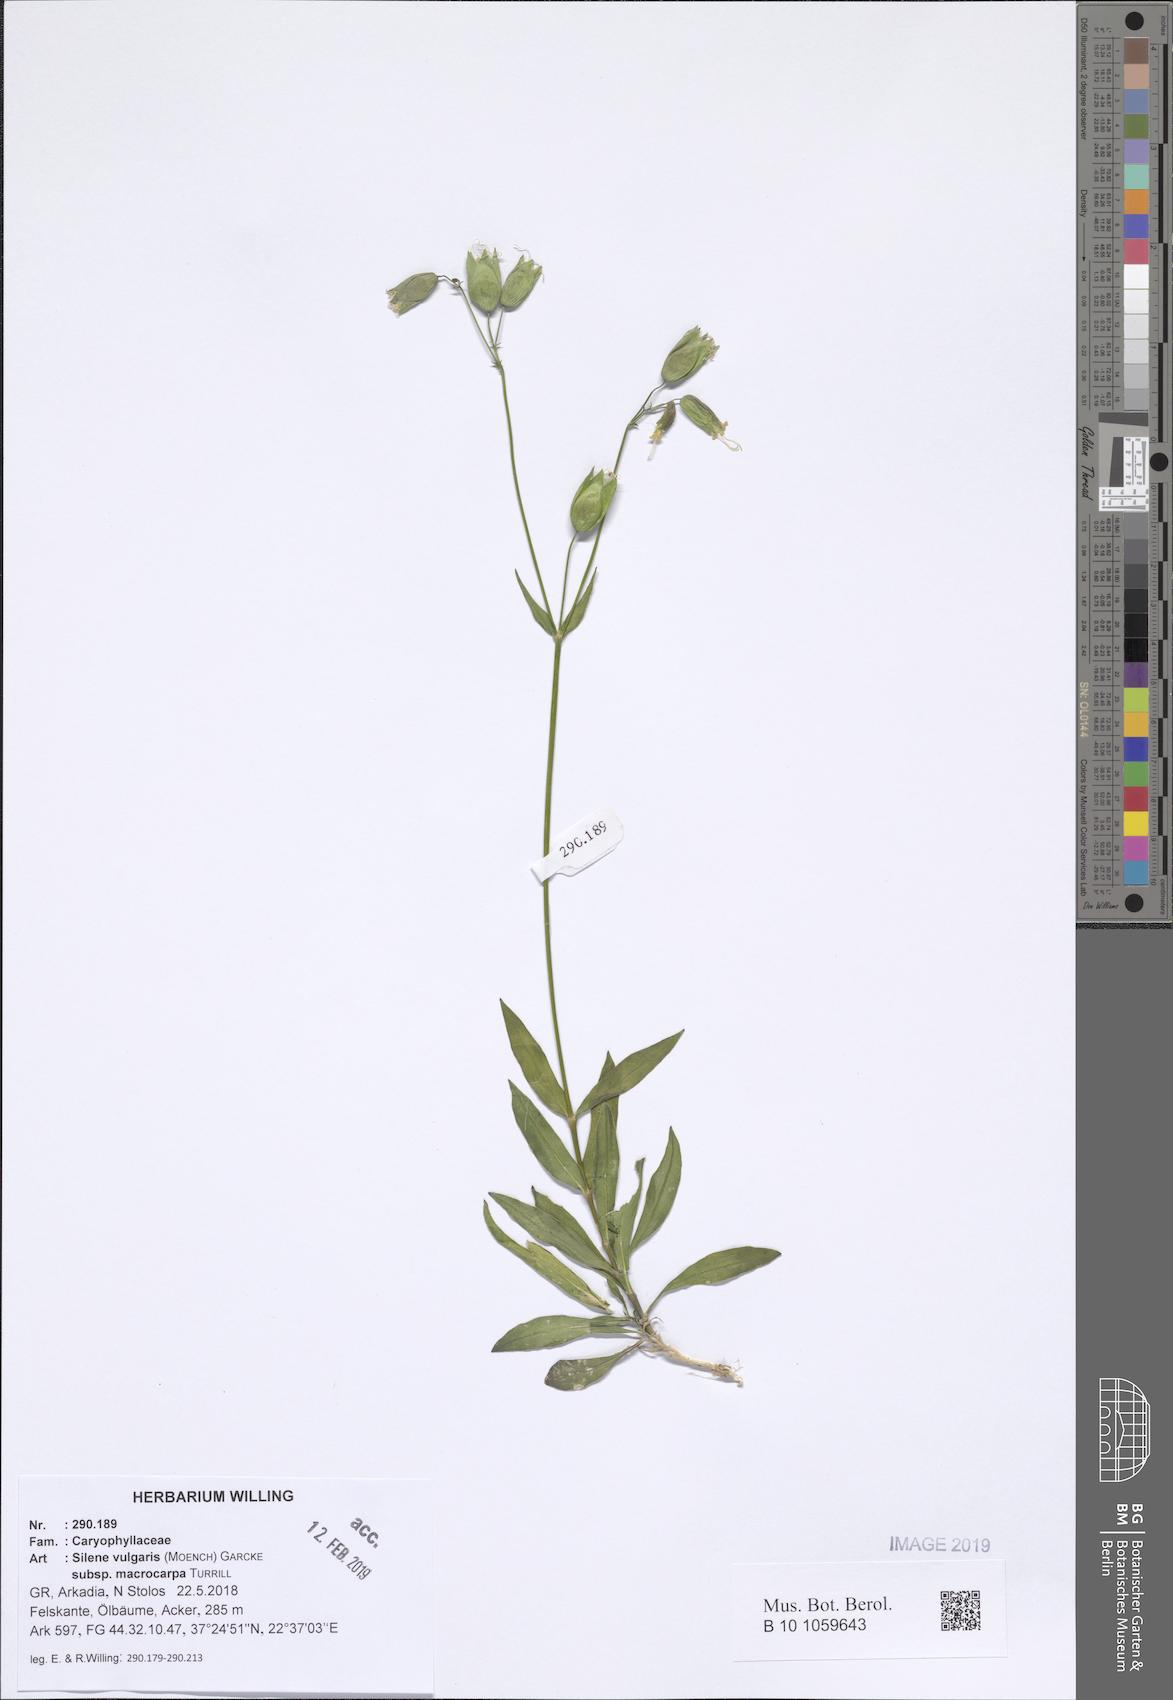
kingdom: Plantae
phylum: Tracheophyta
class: Magnoliopsida
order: Caryophyllales
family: Caryophyllaceae
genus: Silene
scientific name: Silene vulgaris
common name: Bladder campion
